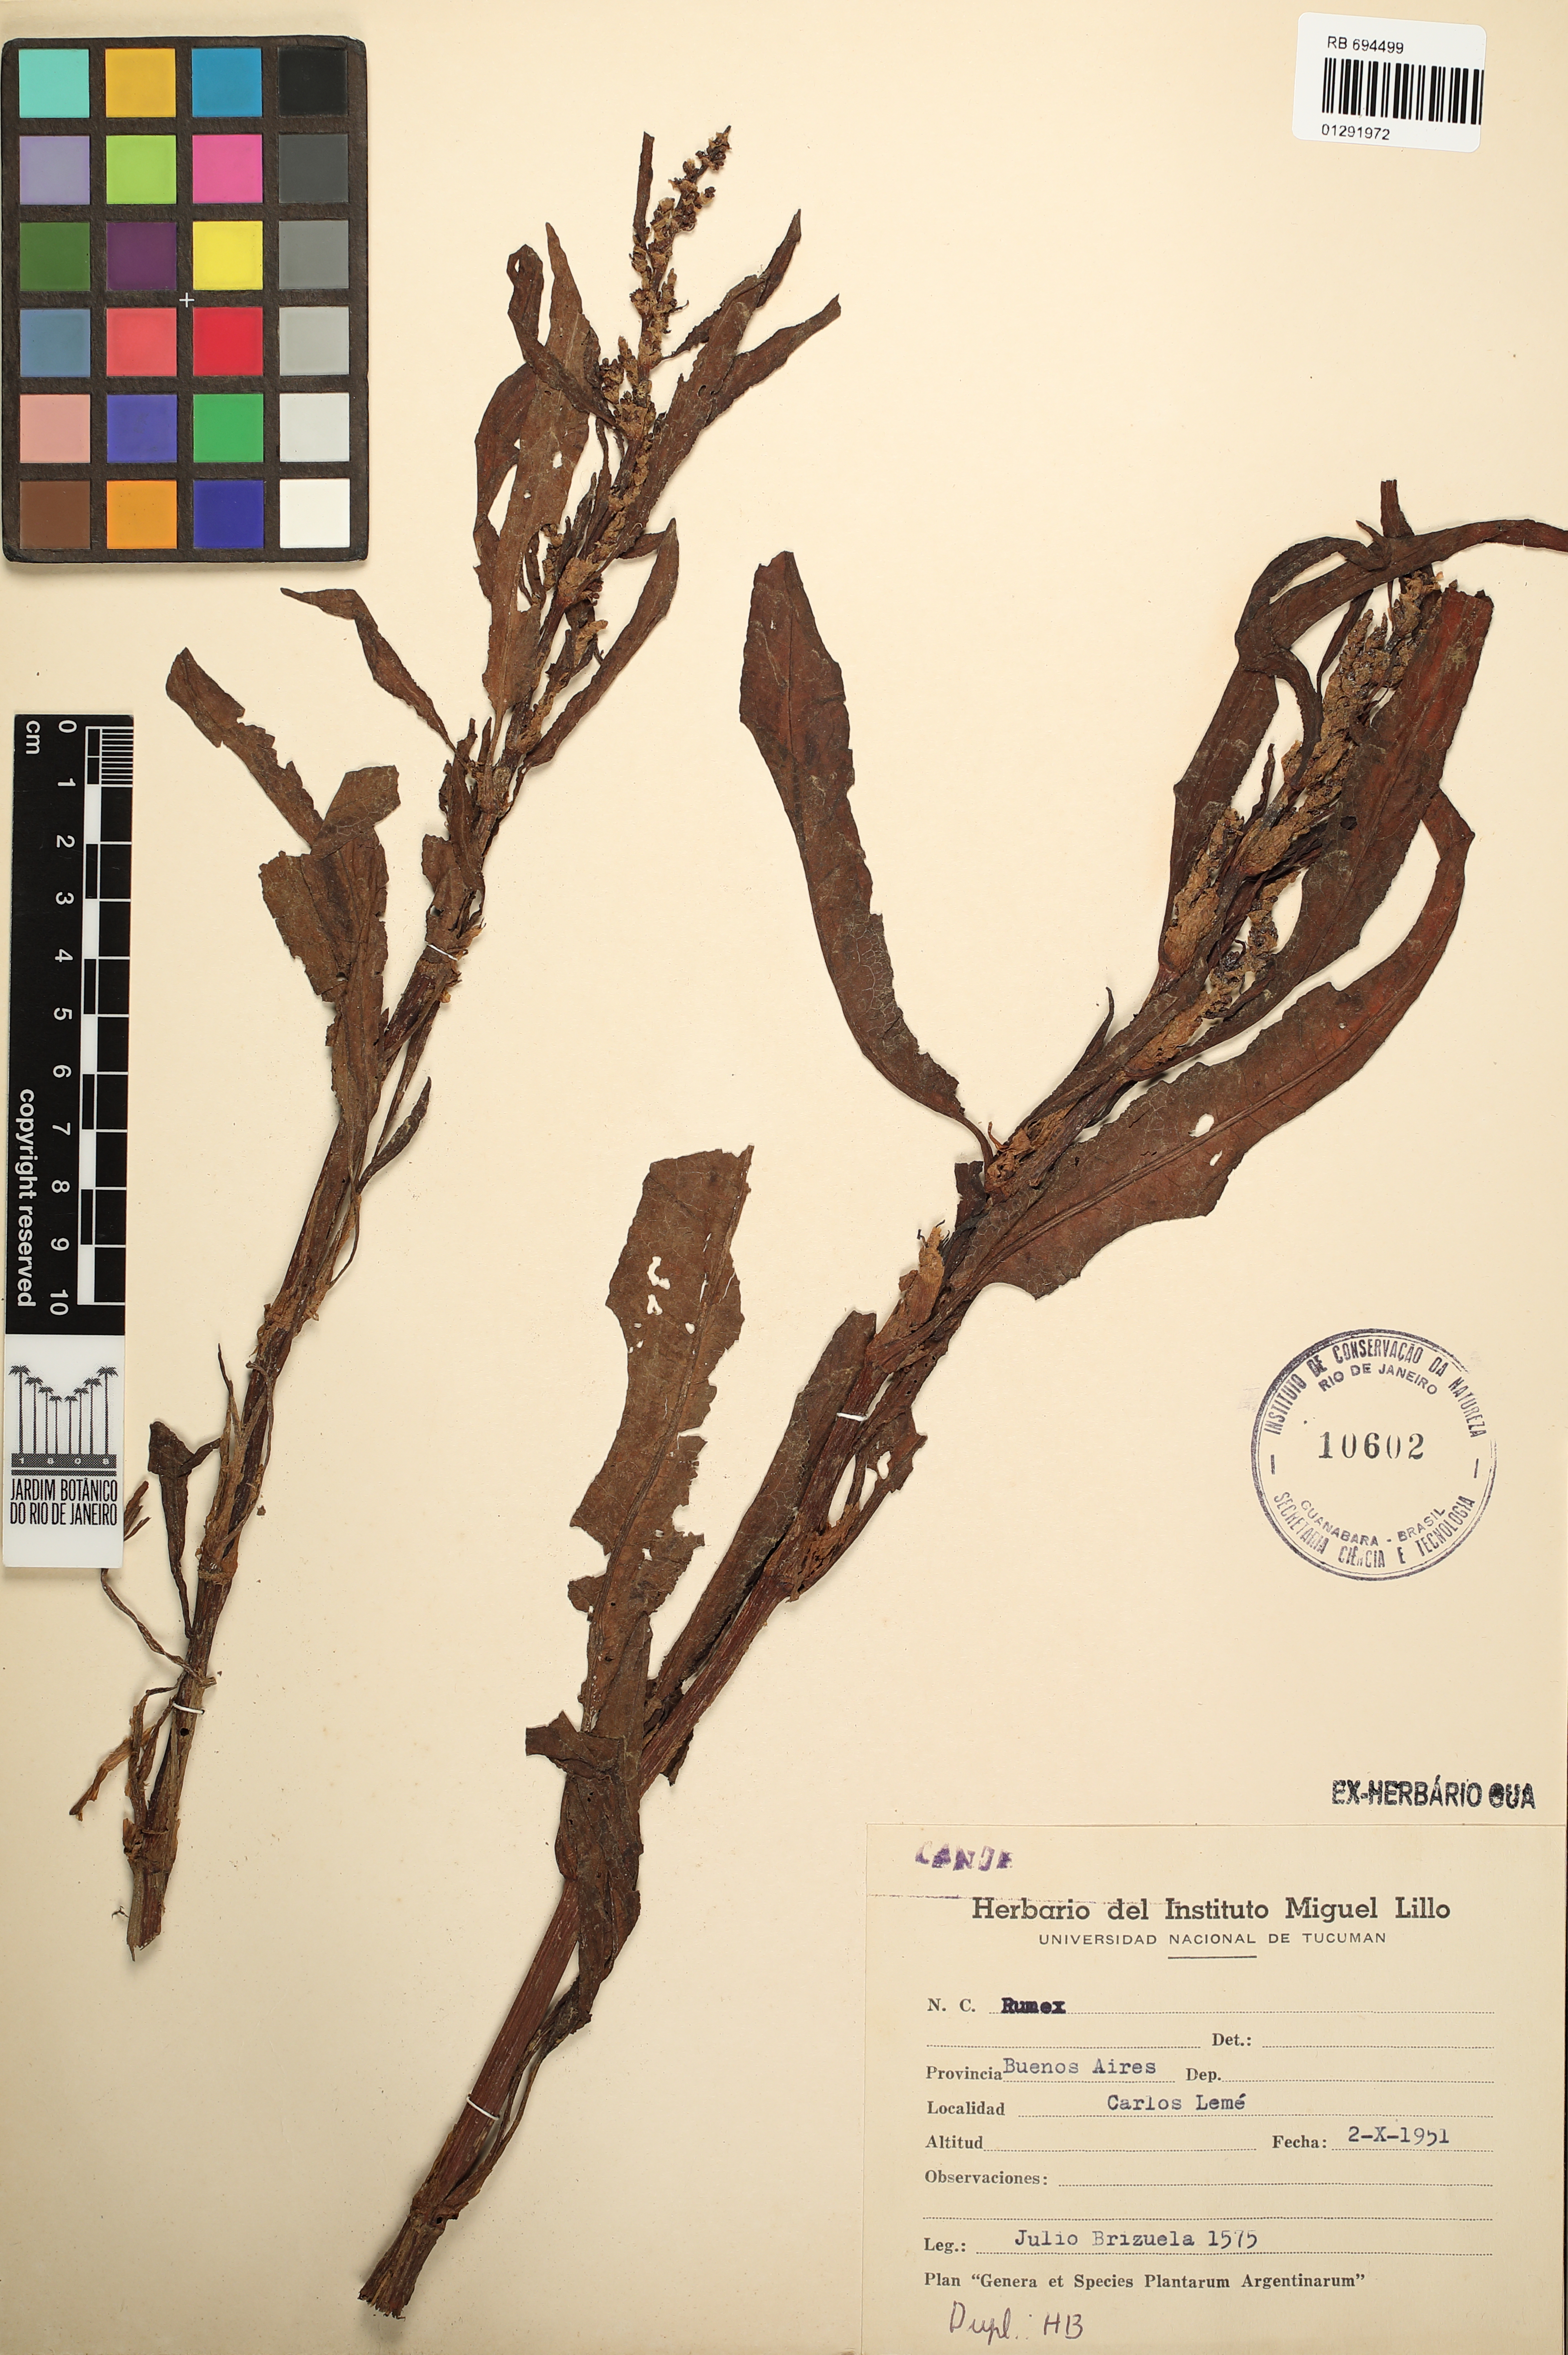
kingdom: Plantae
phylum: Tracheophyta
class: Magnoliopsida
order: Caryophyllales
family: Polygonaceae
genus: Rumex
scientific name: Rumex
